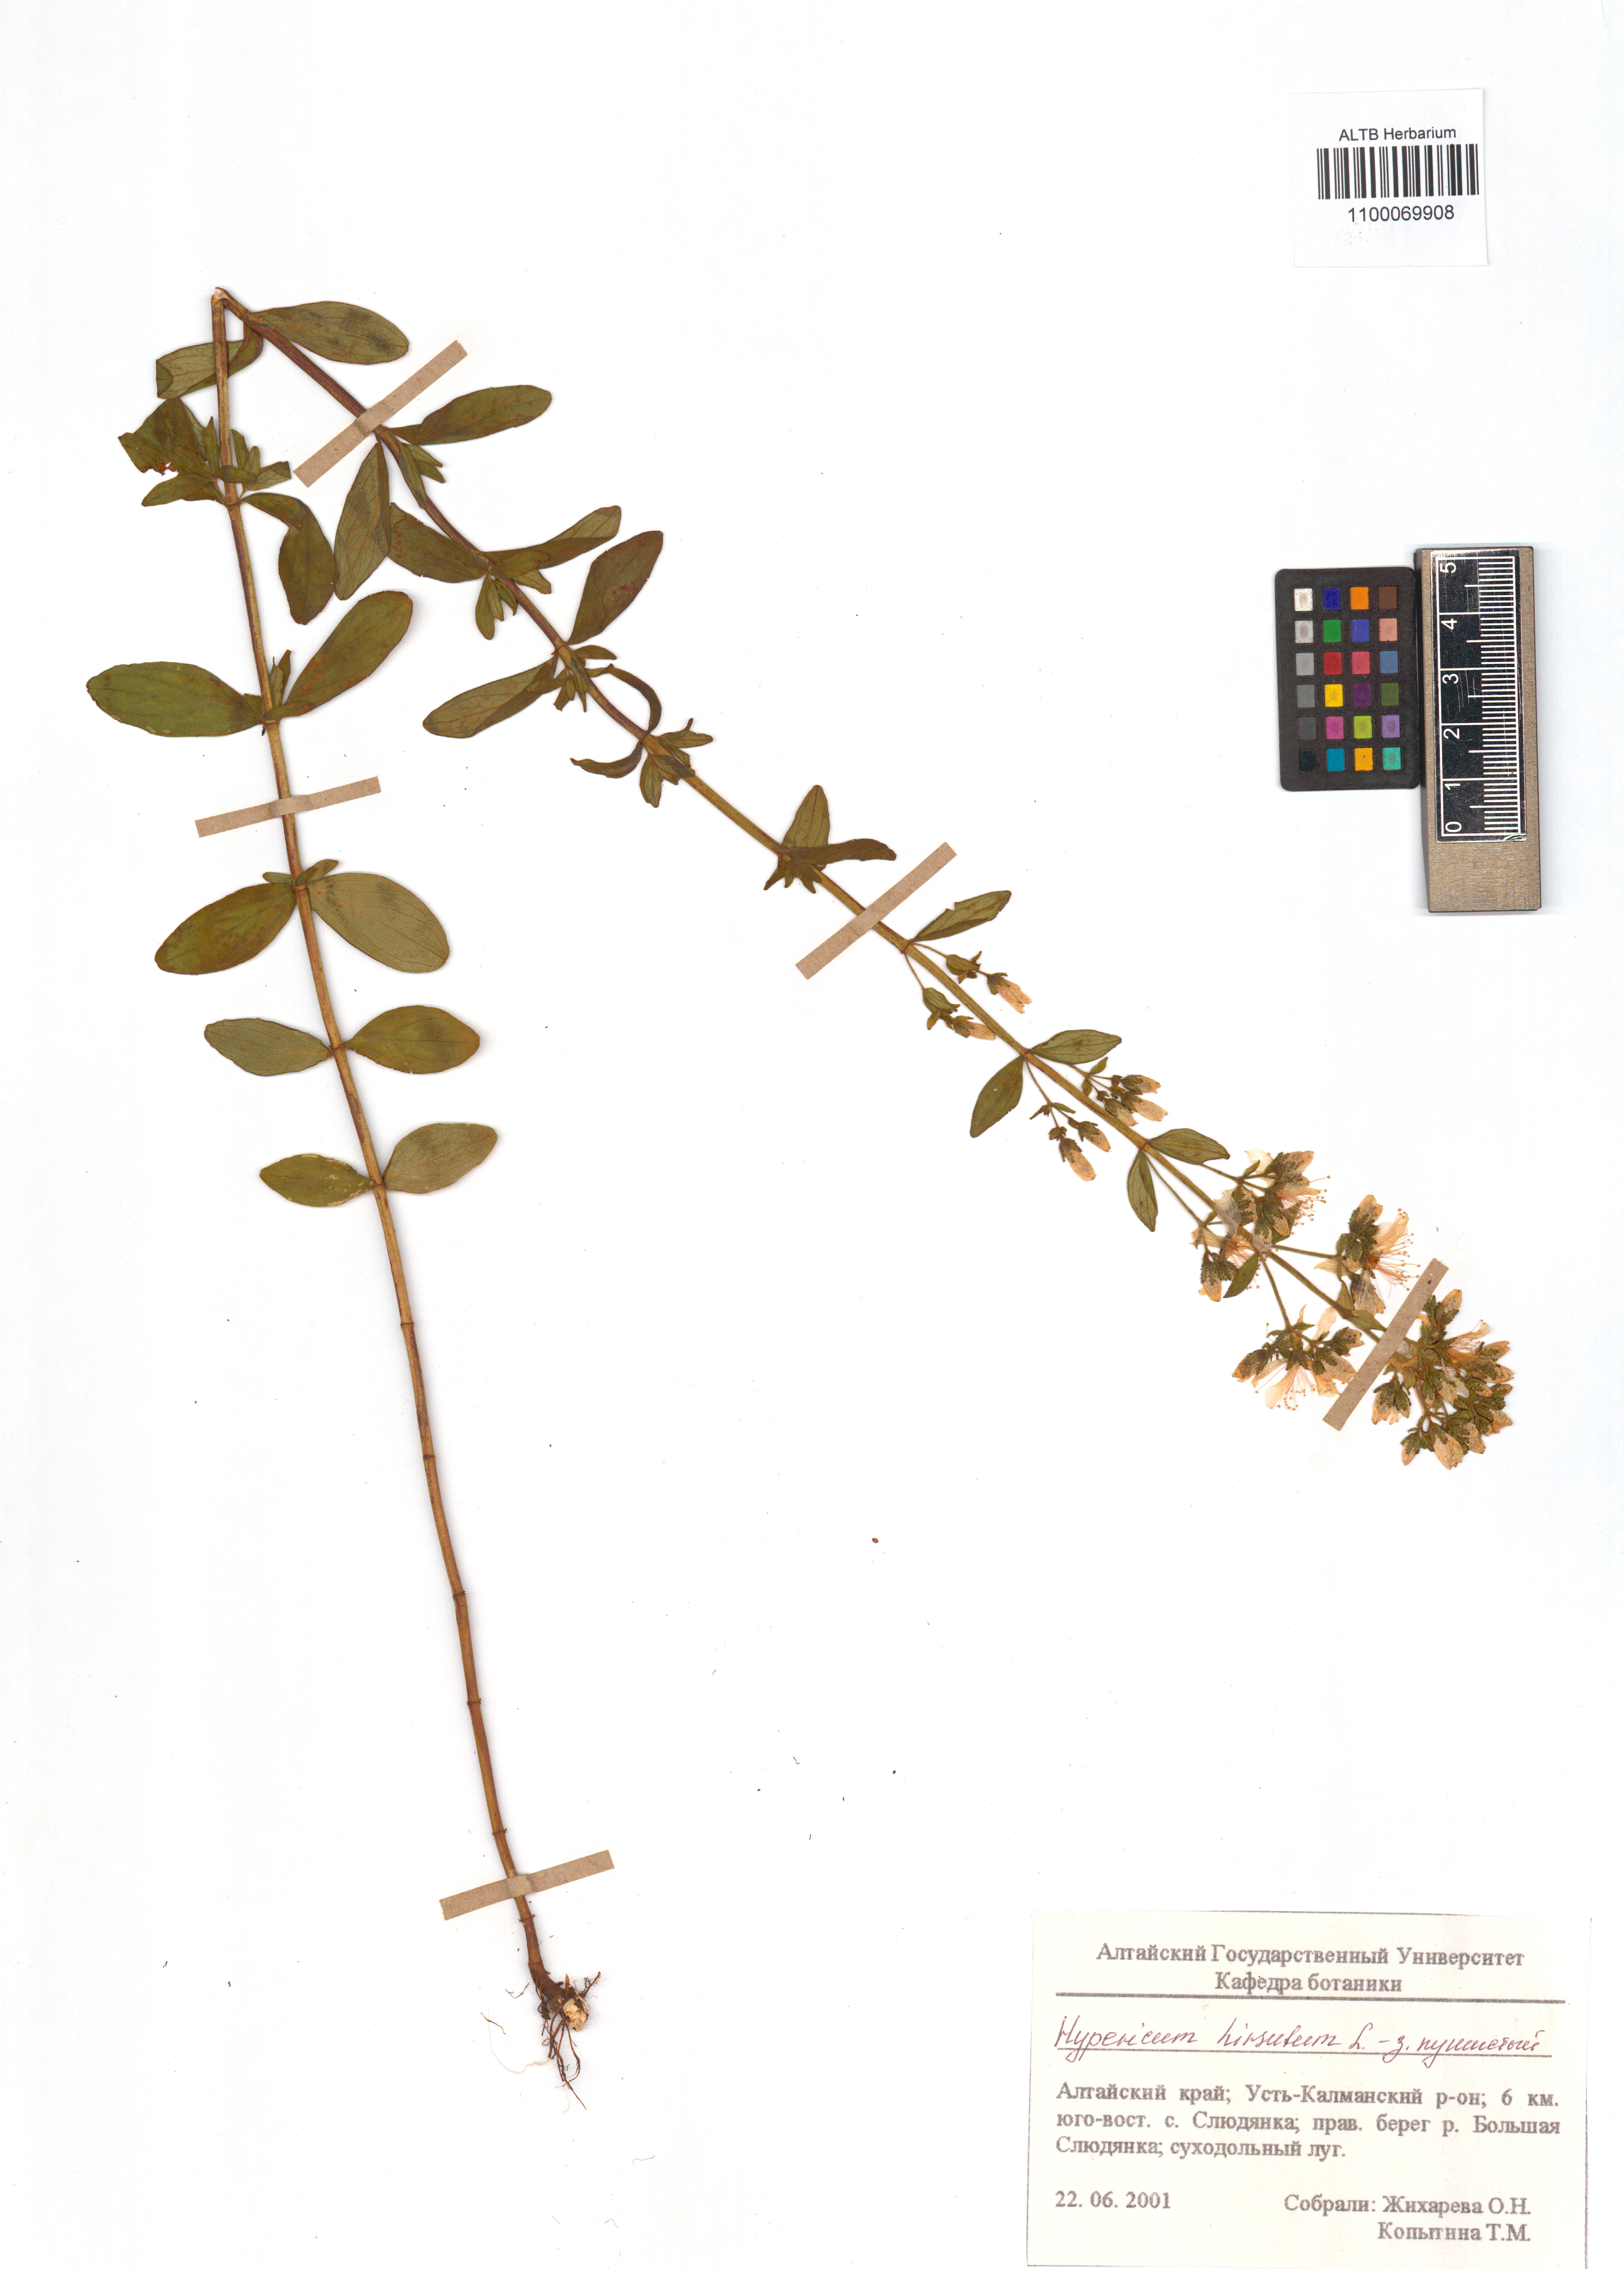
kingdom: Plantae
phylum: Tracheophyta
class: Magnoliopsida
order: Malpighiales
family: Hypericaceae
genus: Hypericum
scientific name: Hypericum hirsutum
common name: Hairy st. john's-wort
